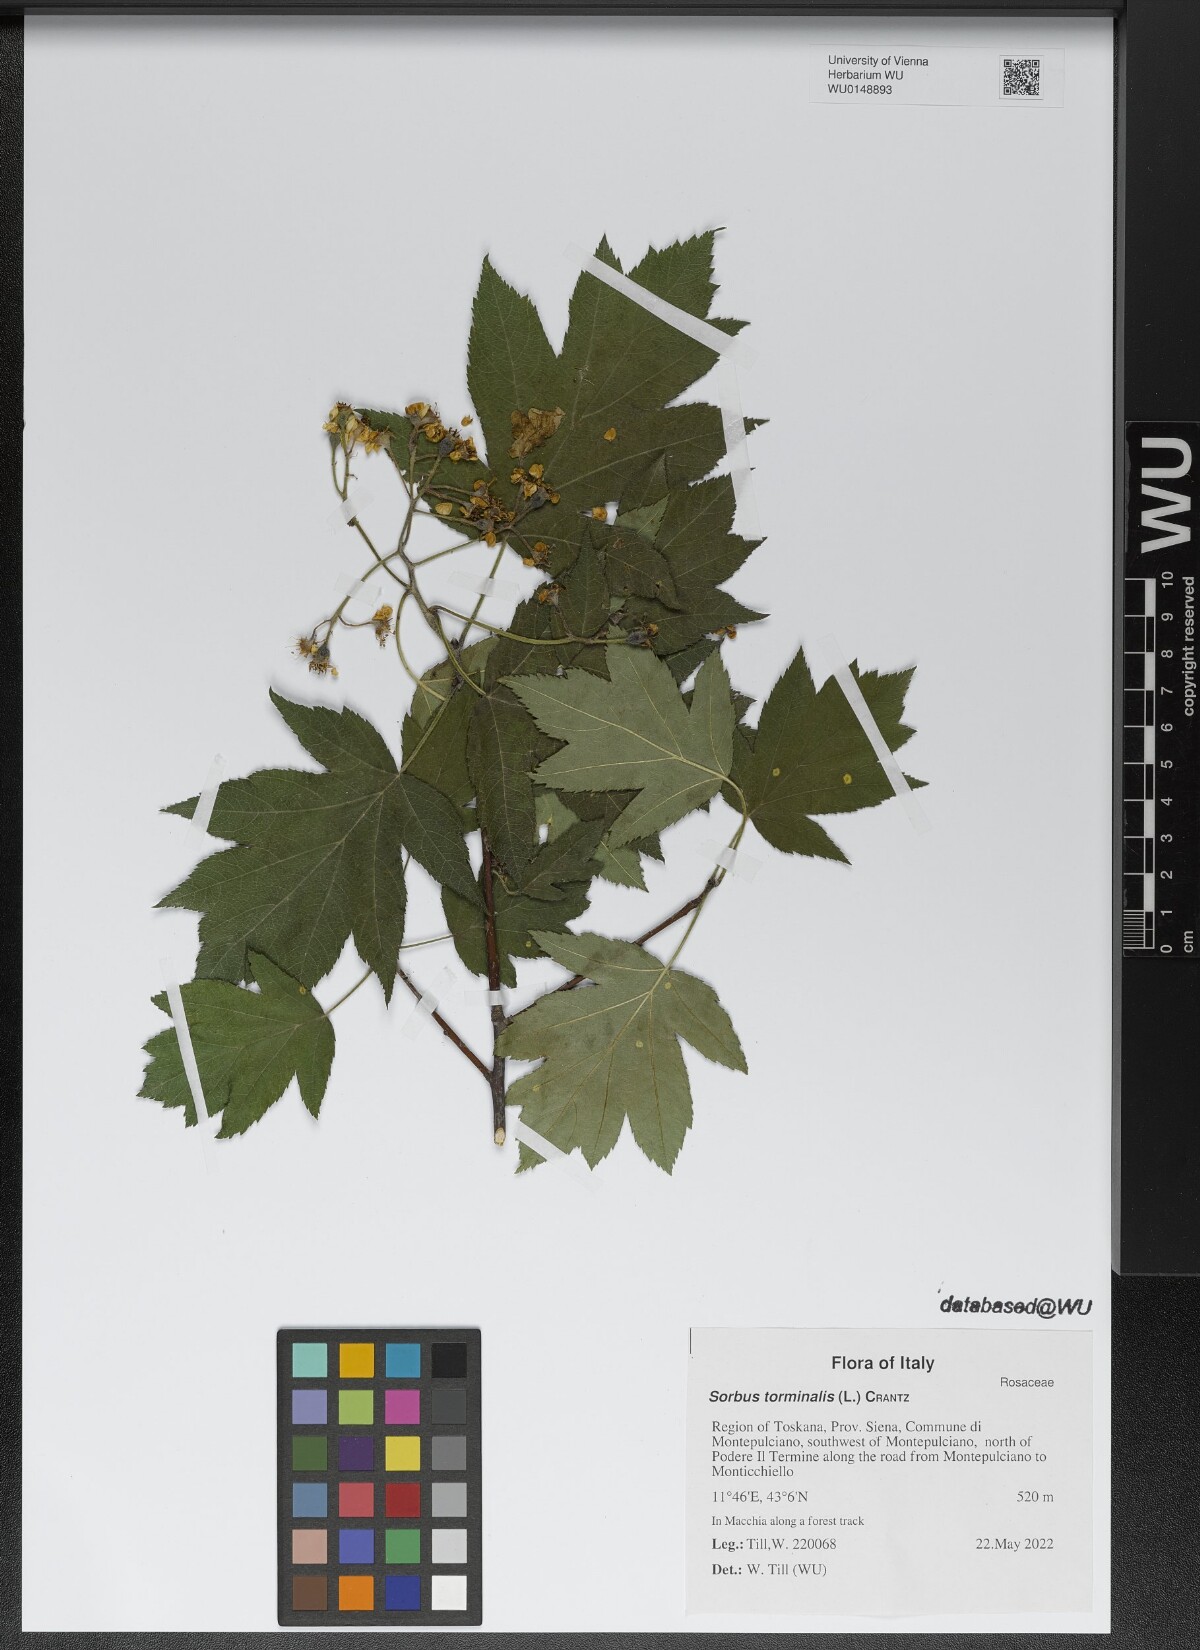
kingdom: Plantae
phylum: Tracheophyta
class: Magnoliopsida
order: Rosales
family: Rosaceae
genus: Torminalis
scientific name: Torminalis glaberrima
